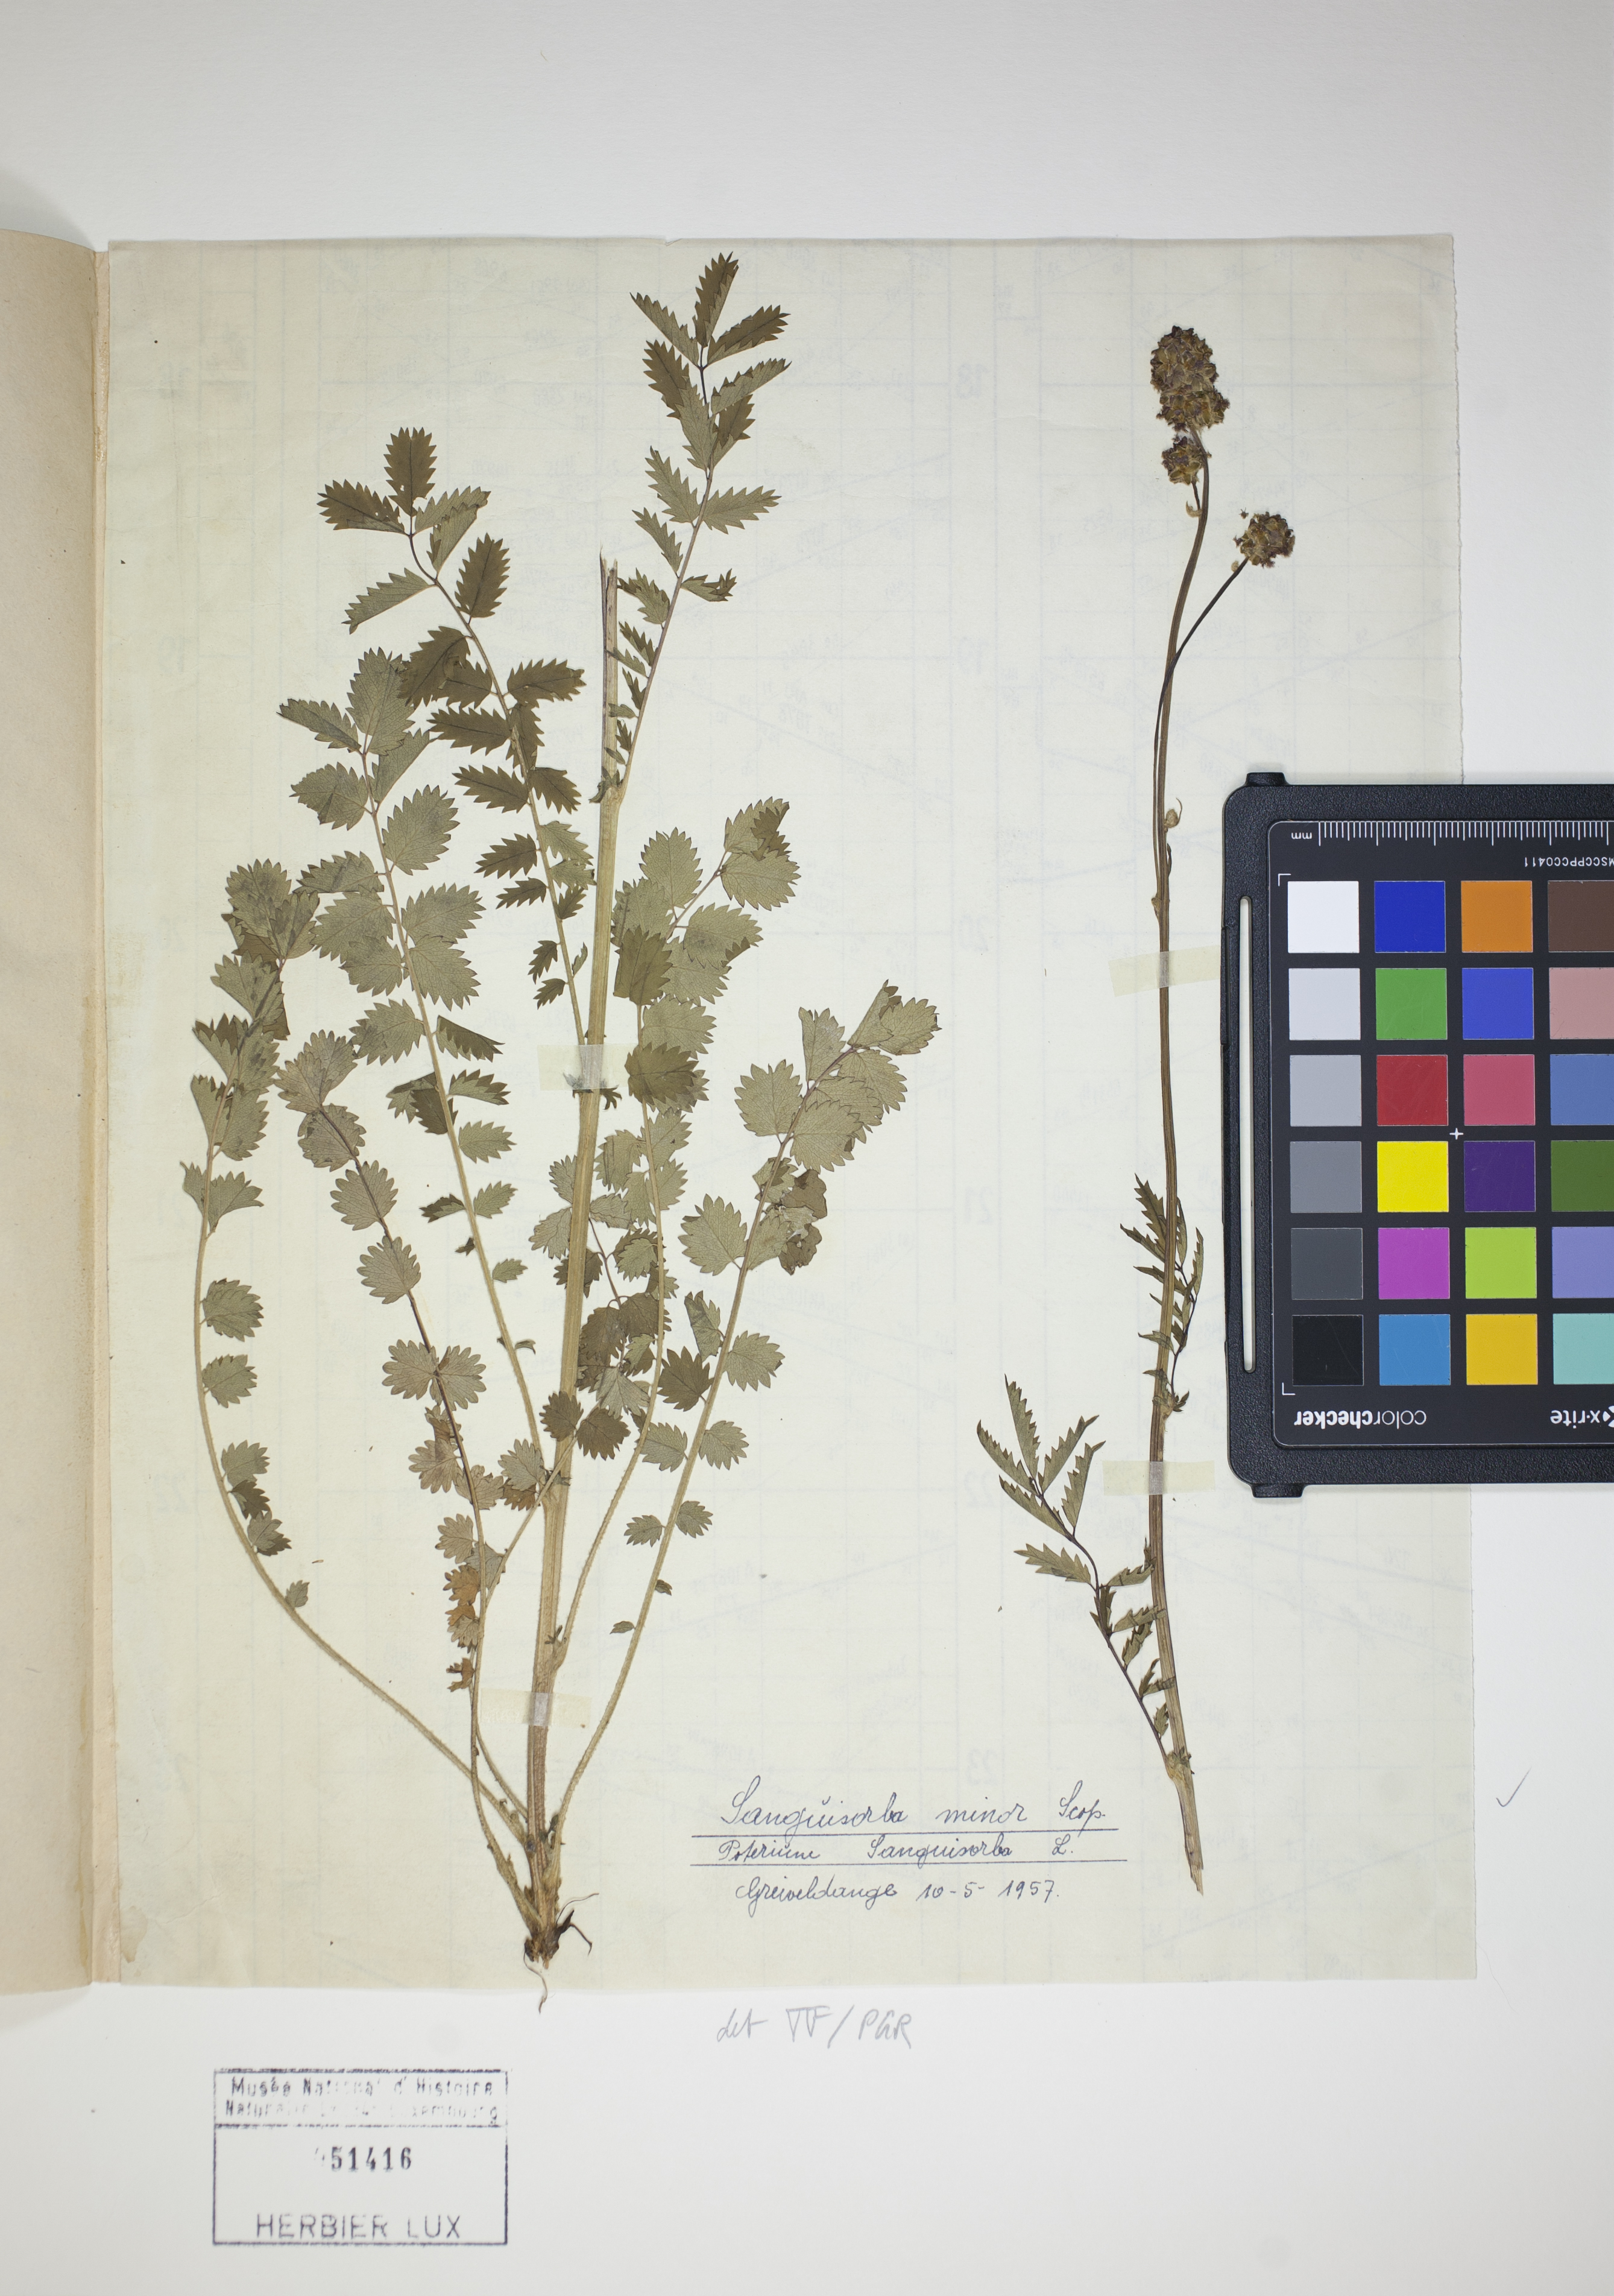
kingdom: Plantae
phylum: Tracheophyta
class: Magnoliopsida
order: Rosales
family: Rosaceae
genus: Poterium
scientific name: Poterium sanguisorba
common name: Salad burnet
